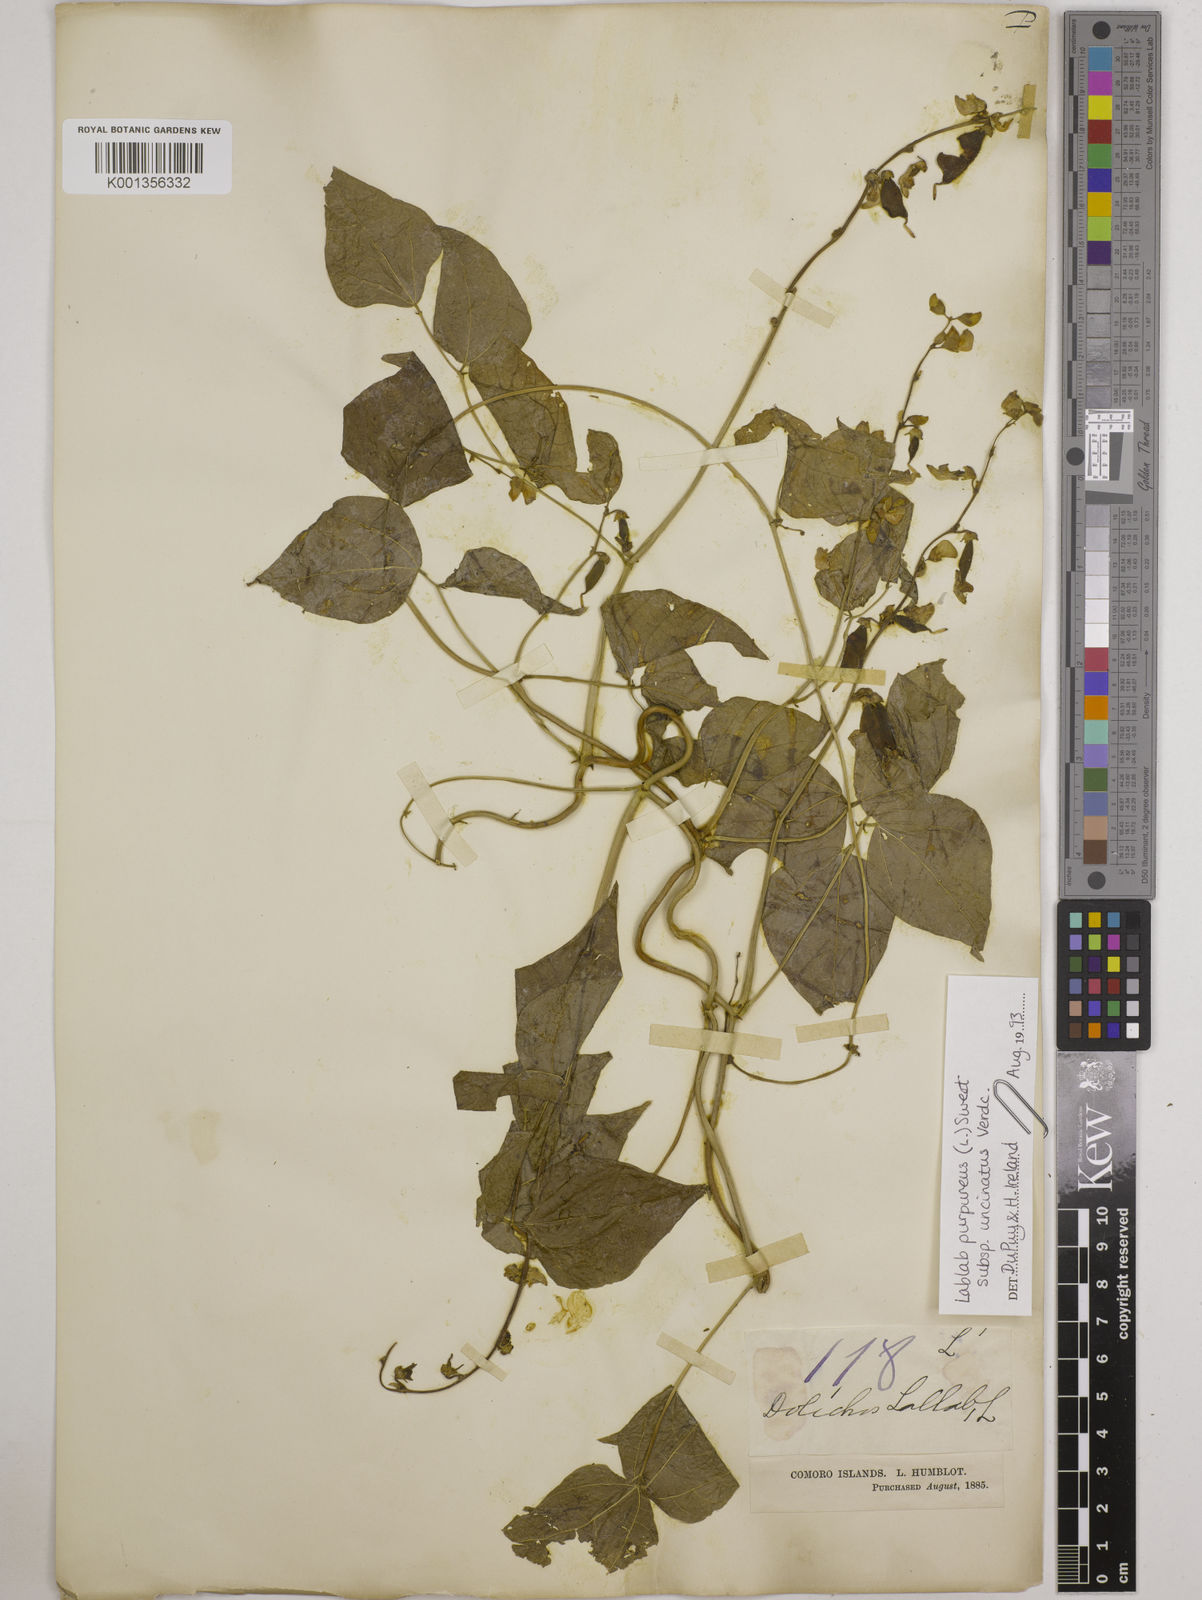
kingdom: Plantae
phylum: Tracheophyta
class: Magnoliopsida
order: Fabales
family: Fabaceae
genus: Lablab
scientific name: Lablab purpureus
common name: Lablab-bean
